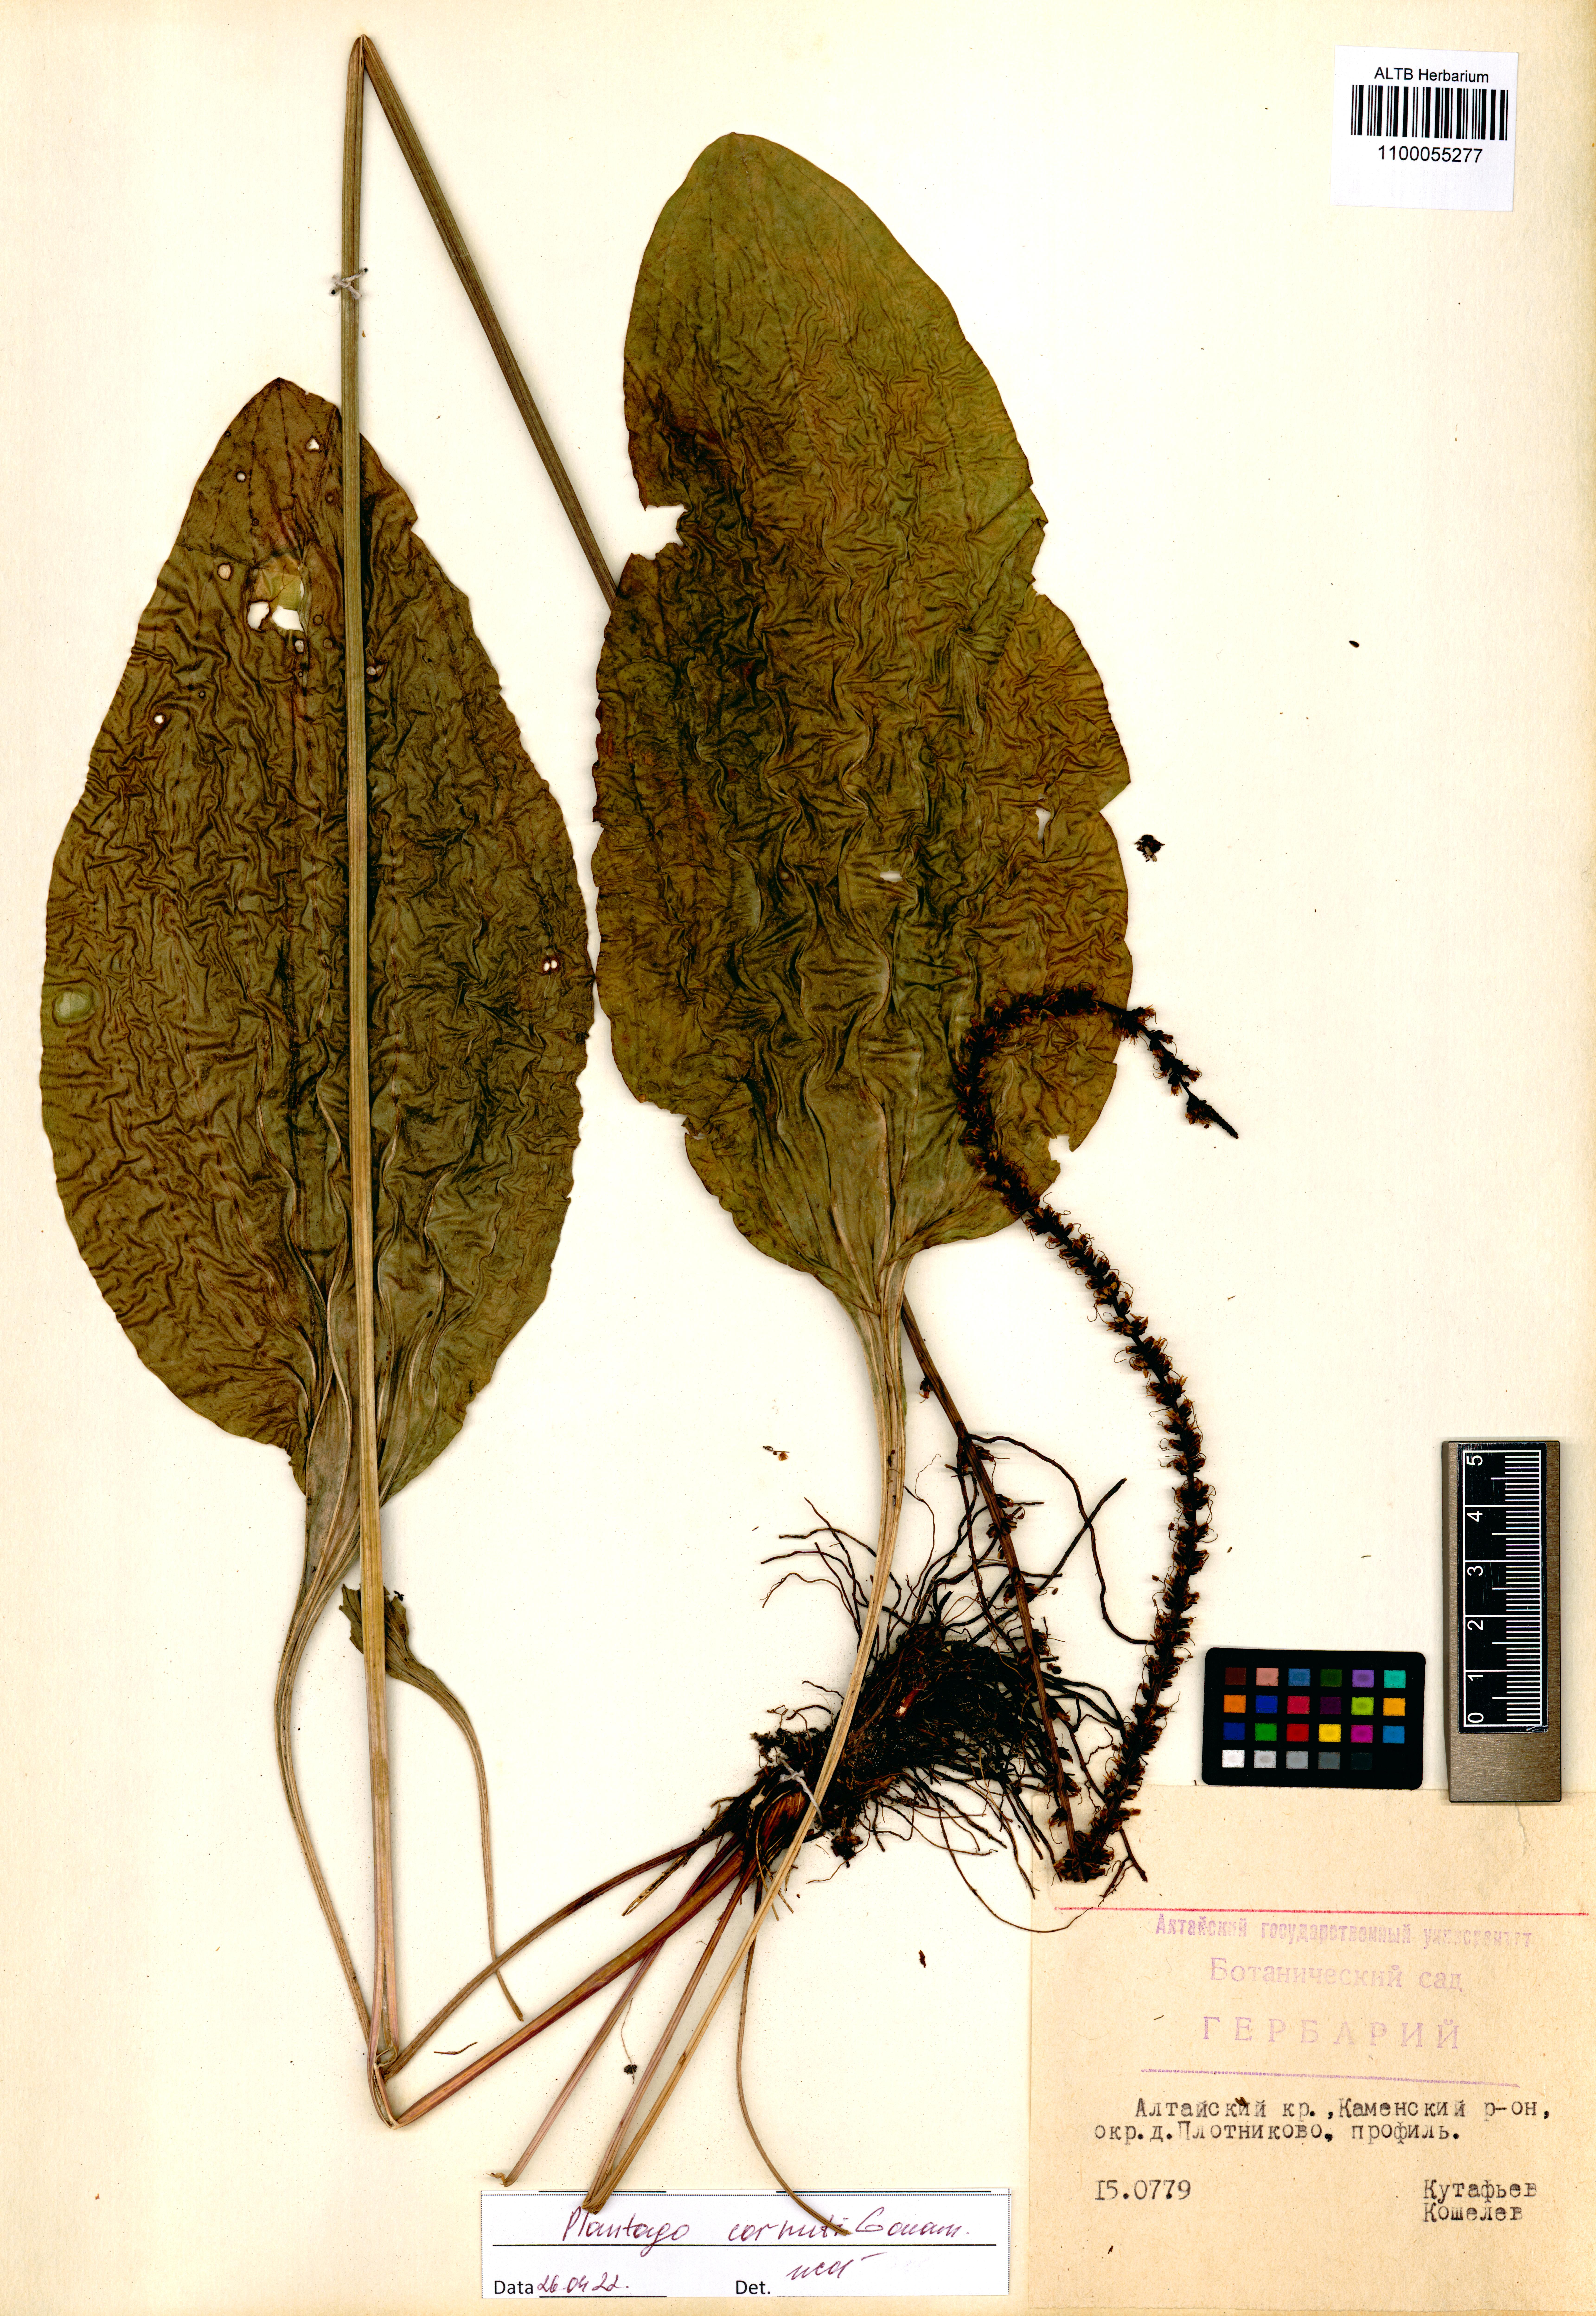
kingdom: Plantae
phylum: Tracheophyta
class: Magnoliopsida
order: Lamiales
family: Plantaginaceae
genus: Plantago
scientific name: Plantago cornuti
